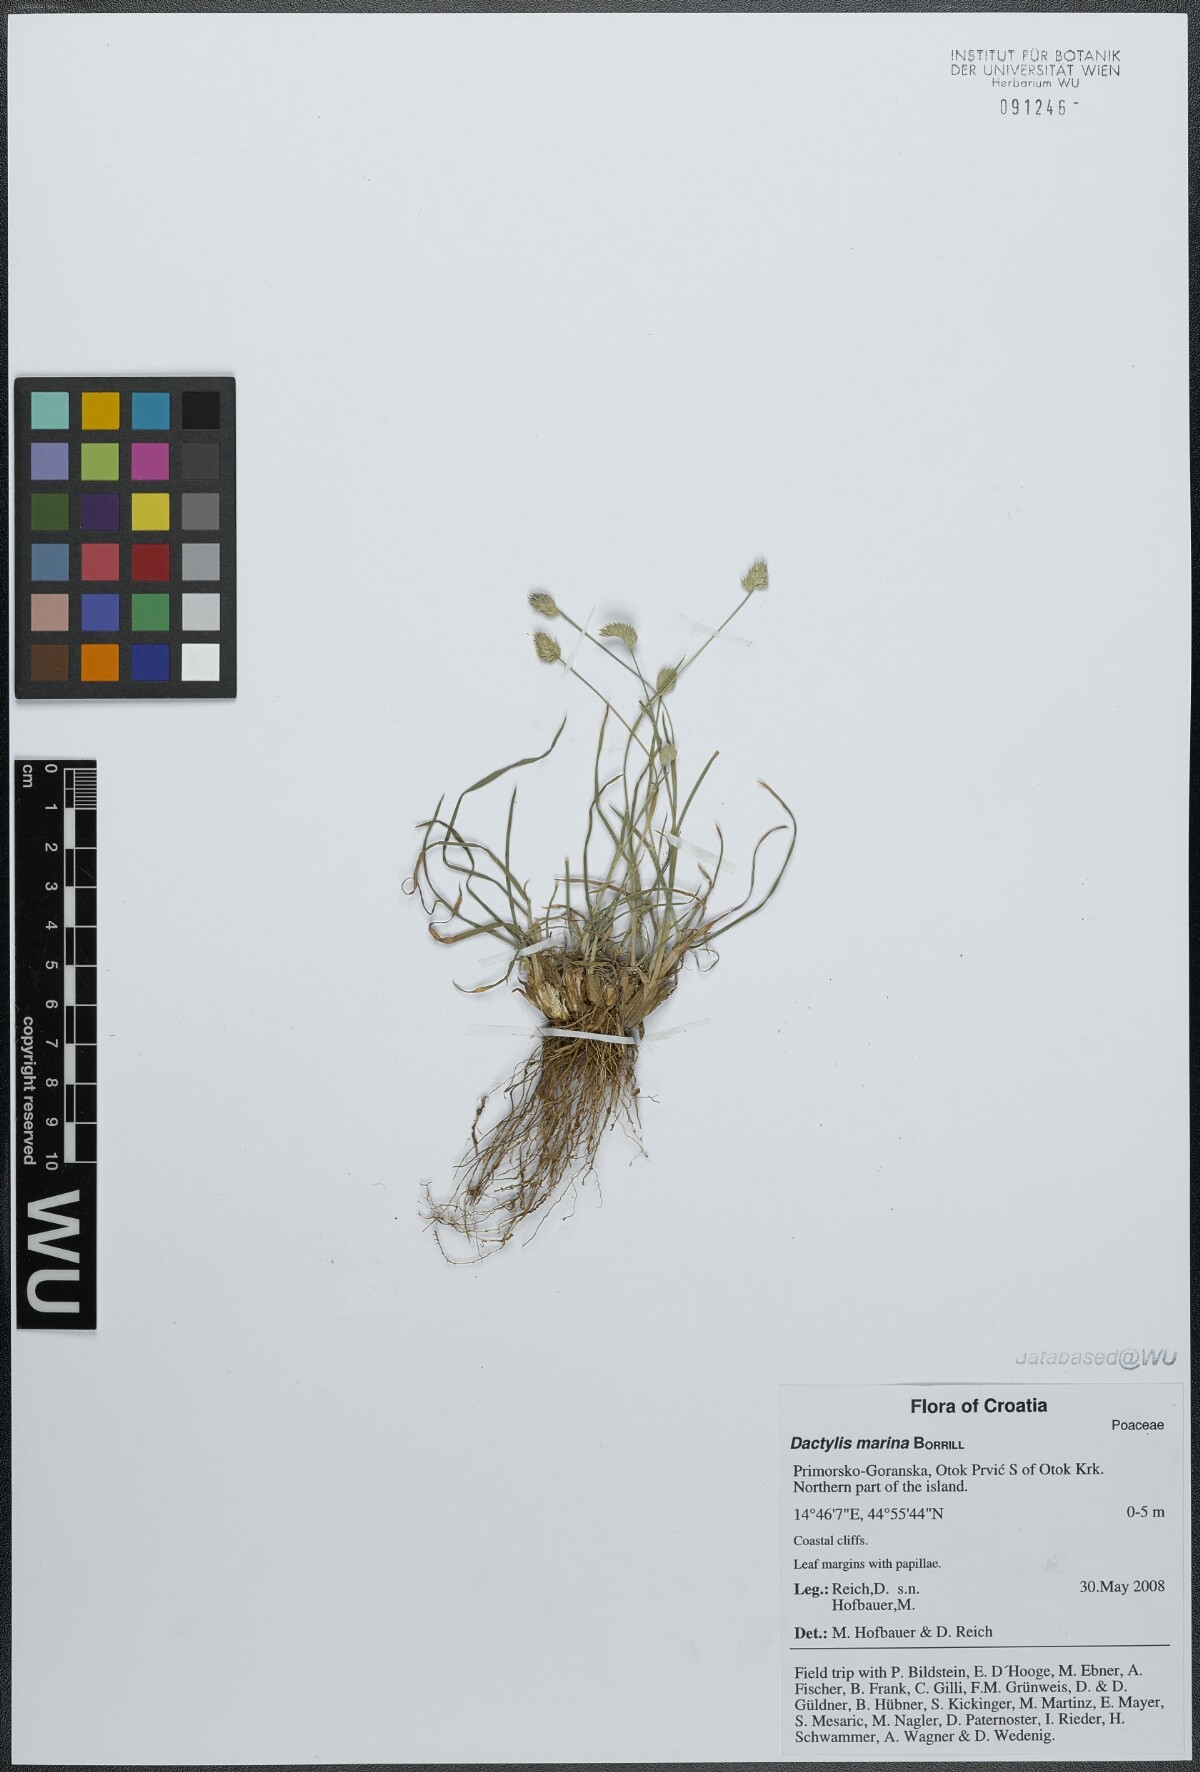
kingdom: Plantae
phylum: Tracheophyta
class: Liliopsida
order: Poales
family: Poaceae
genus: Dactylis
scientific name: Dactylis glomerata
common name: Orchardgrass
